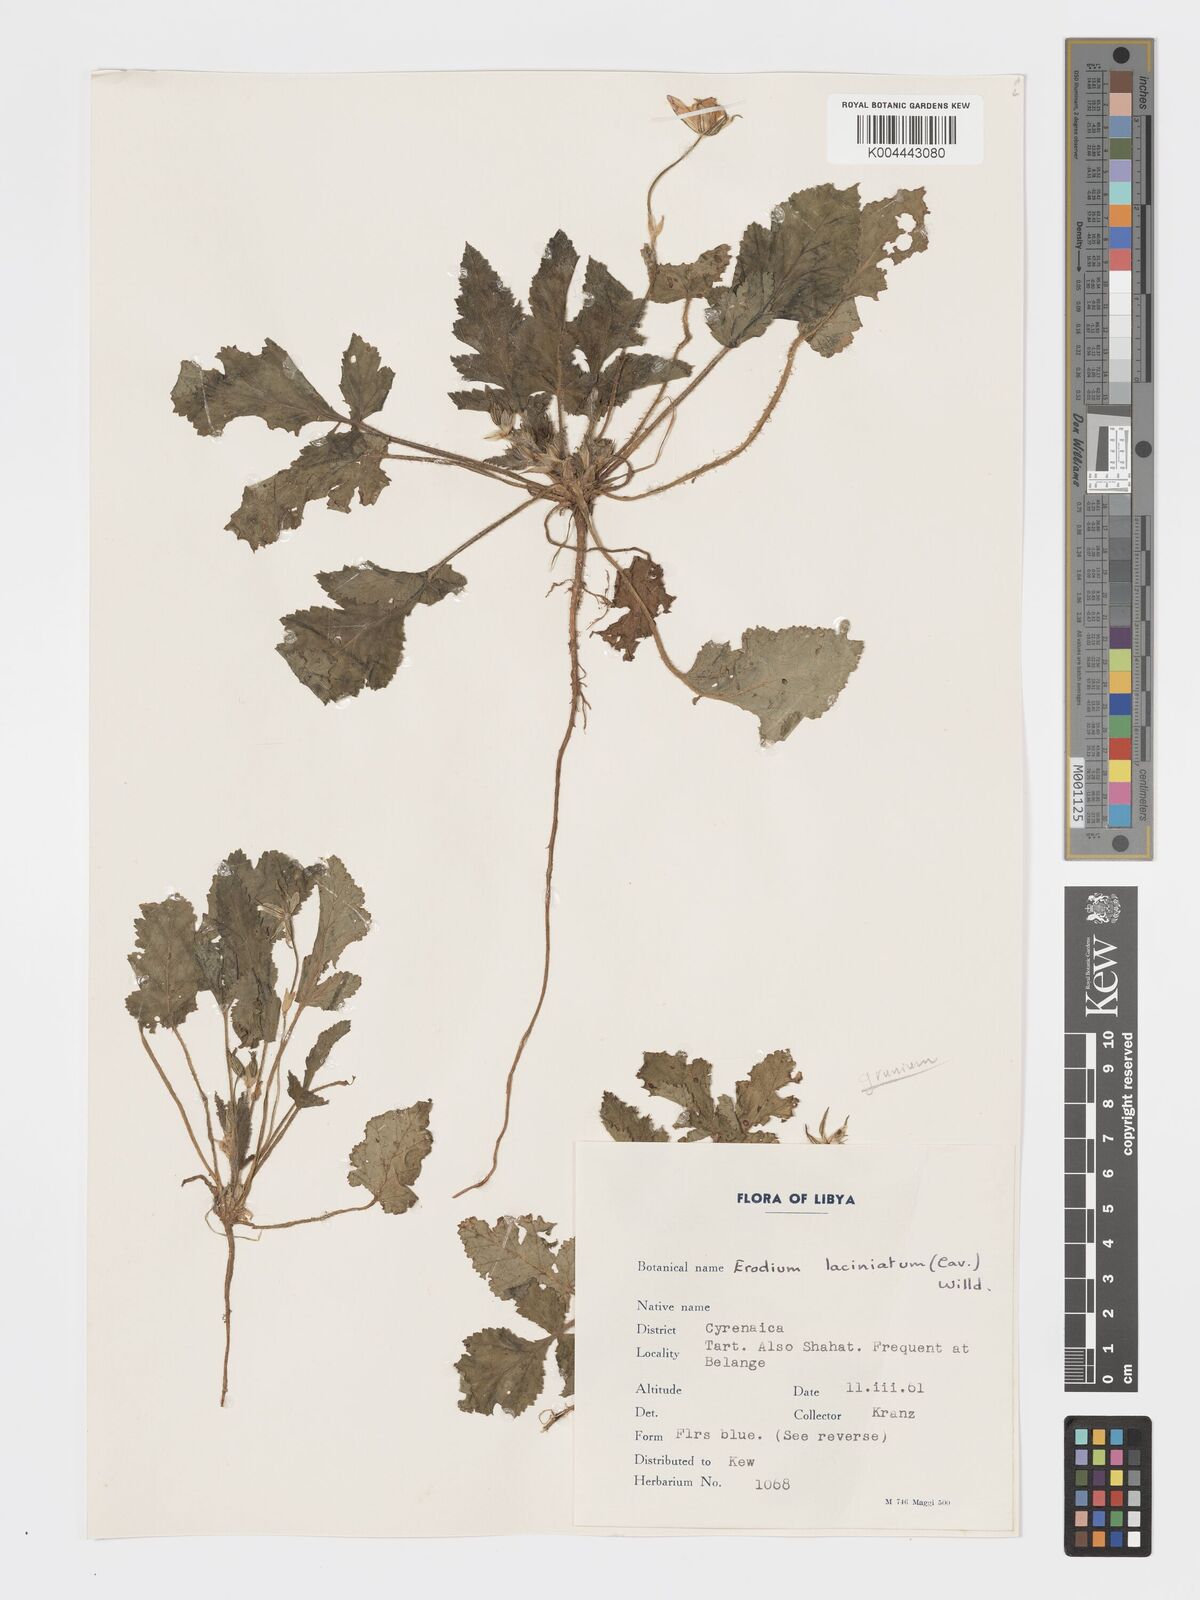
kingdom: Plantae
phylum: Tracheophyta
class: Magnoliopsida
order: Geraniales
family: Geraniaceae
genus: Erodium
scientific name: Erodium laciniatum
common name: Cutleaf stork's bill
